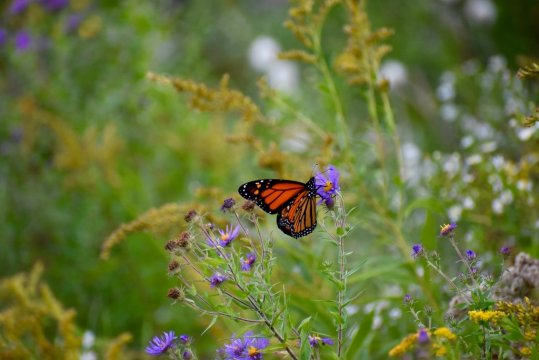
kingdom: Animalia
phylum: Arthropoda
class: Insecta
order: Lepidoptera
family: Nymphalidae
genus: Danaus
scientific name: Danaus plexippus
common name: Monarch
